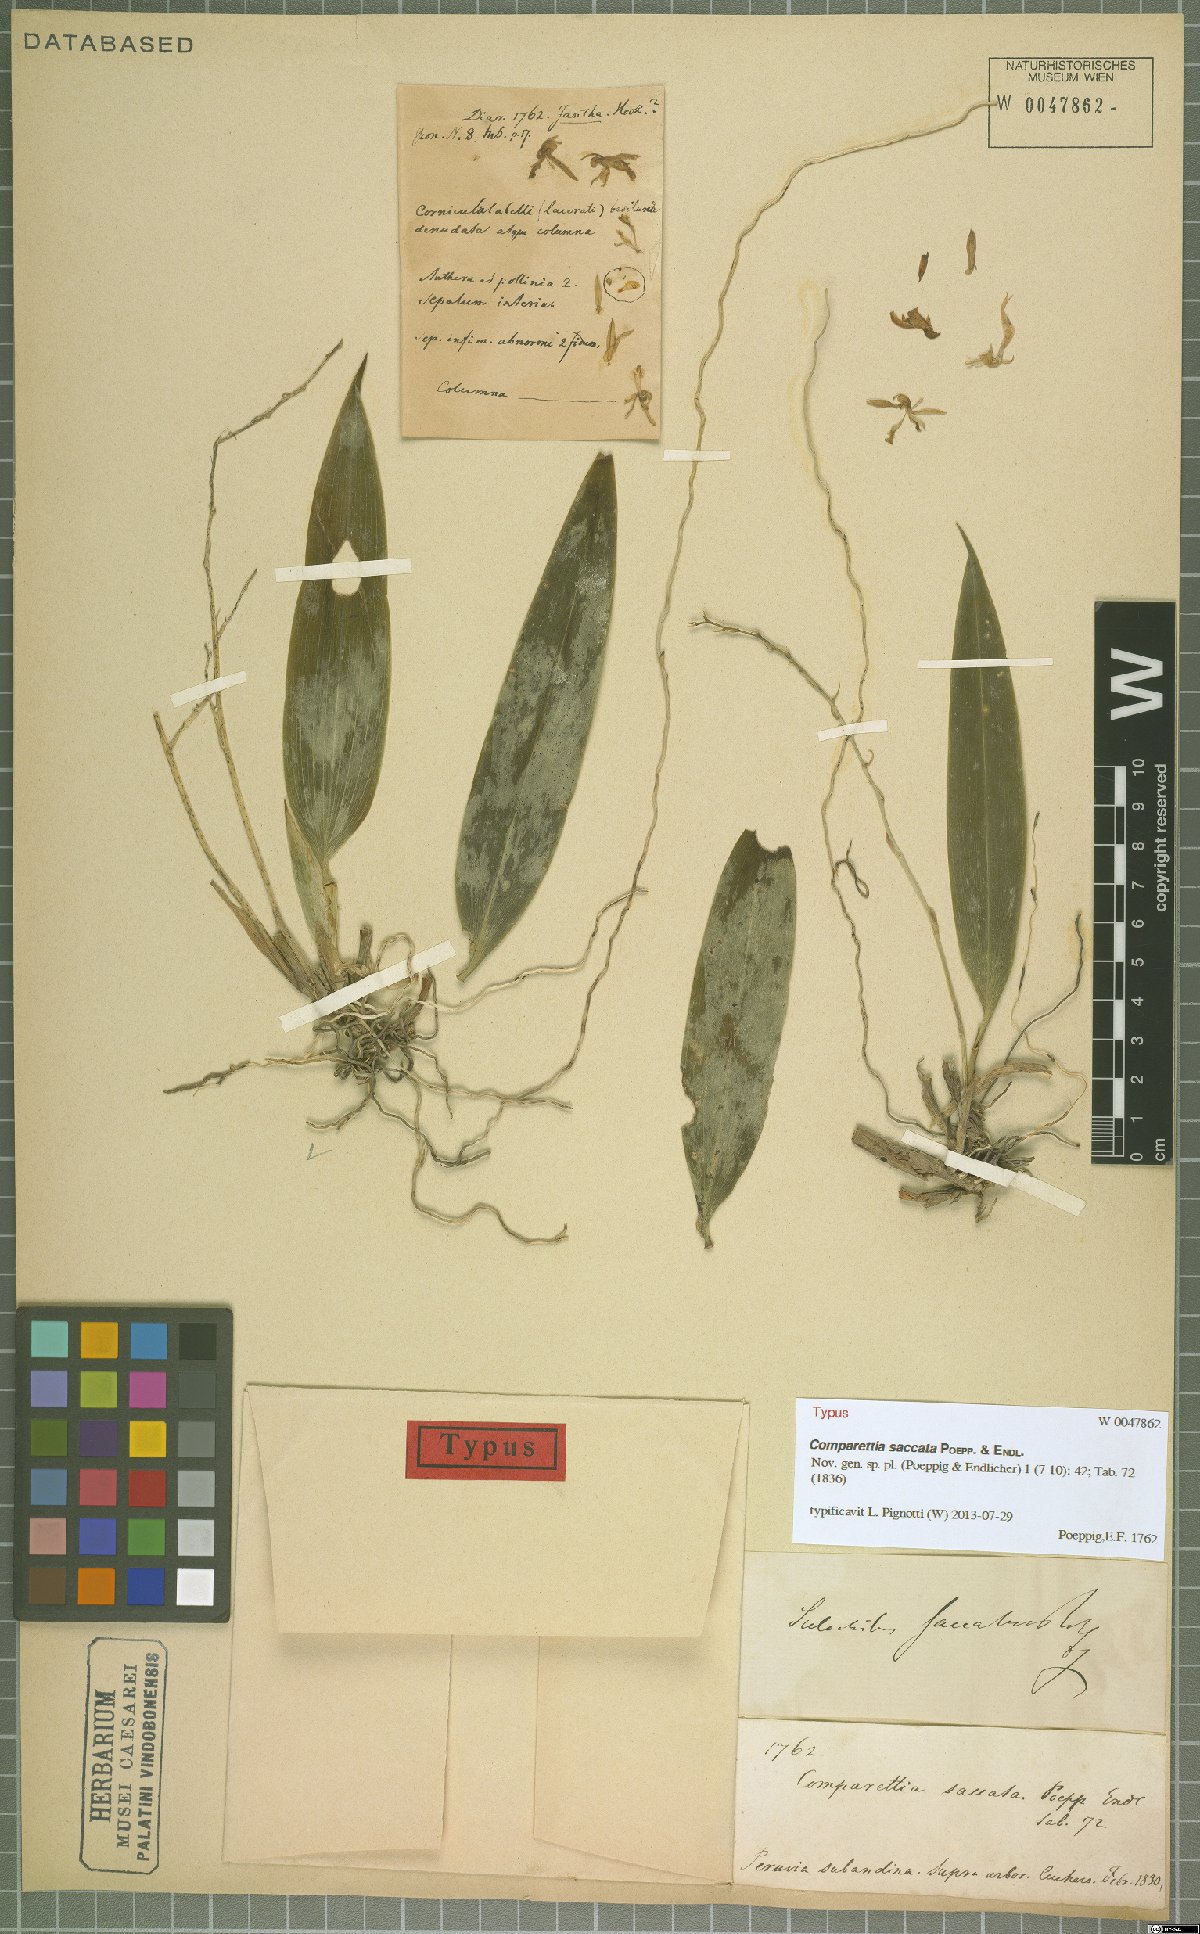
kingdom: Plantae
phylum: Tracheophyta
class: Liliopsida
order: Asparagales
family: Orchidaceae
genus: Comparettia
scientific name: Comparettia saccata
